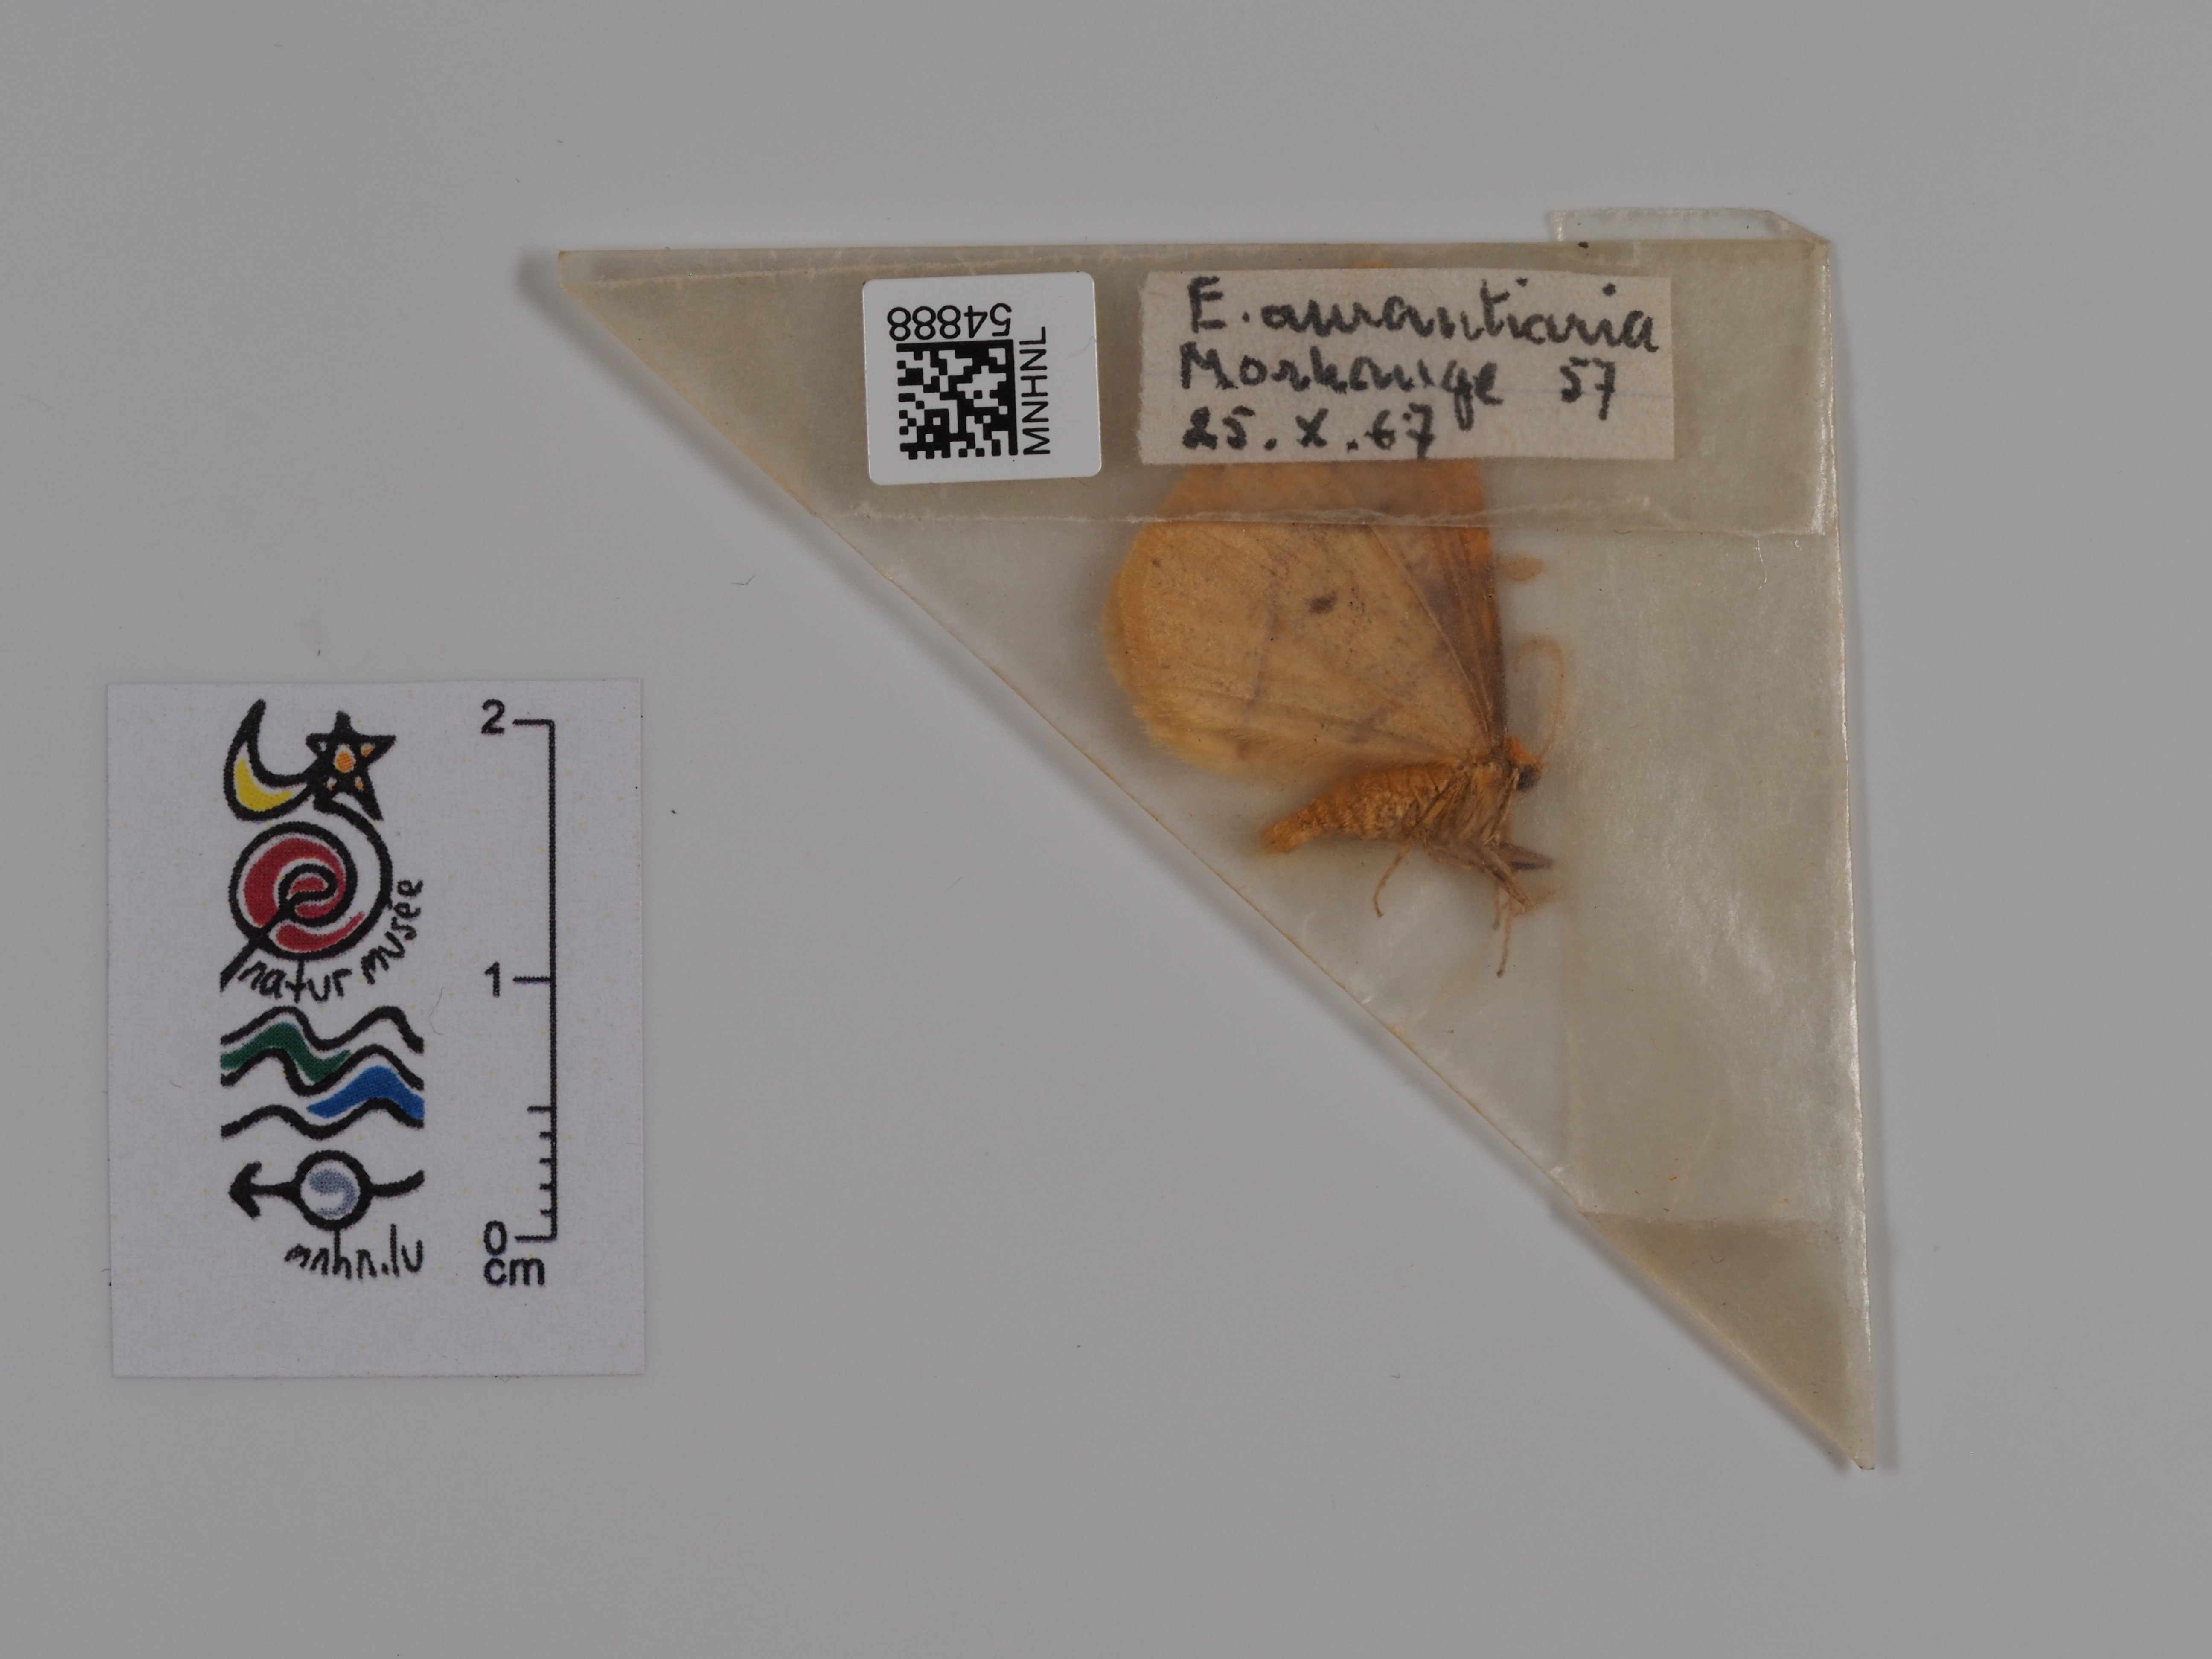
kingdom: Animalia
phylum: Arthropoda
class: Insecta
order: Lepidoptera
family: Geometridae
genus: Erannis
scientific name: Erannis
